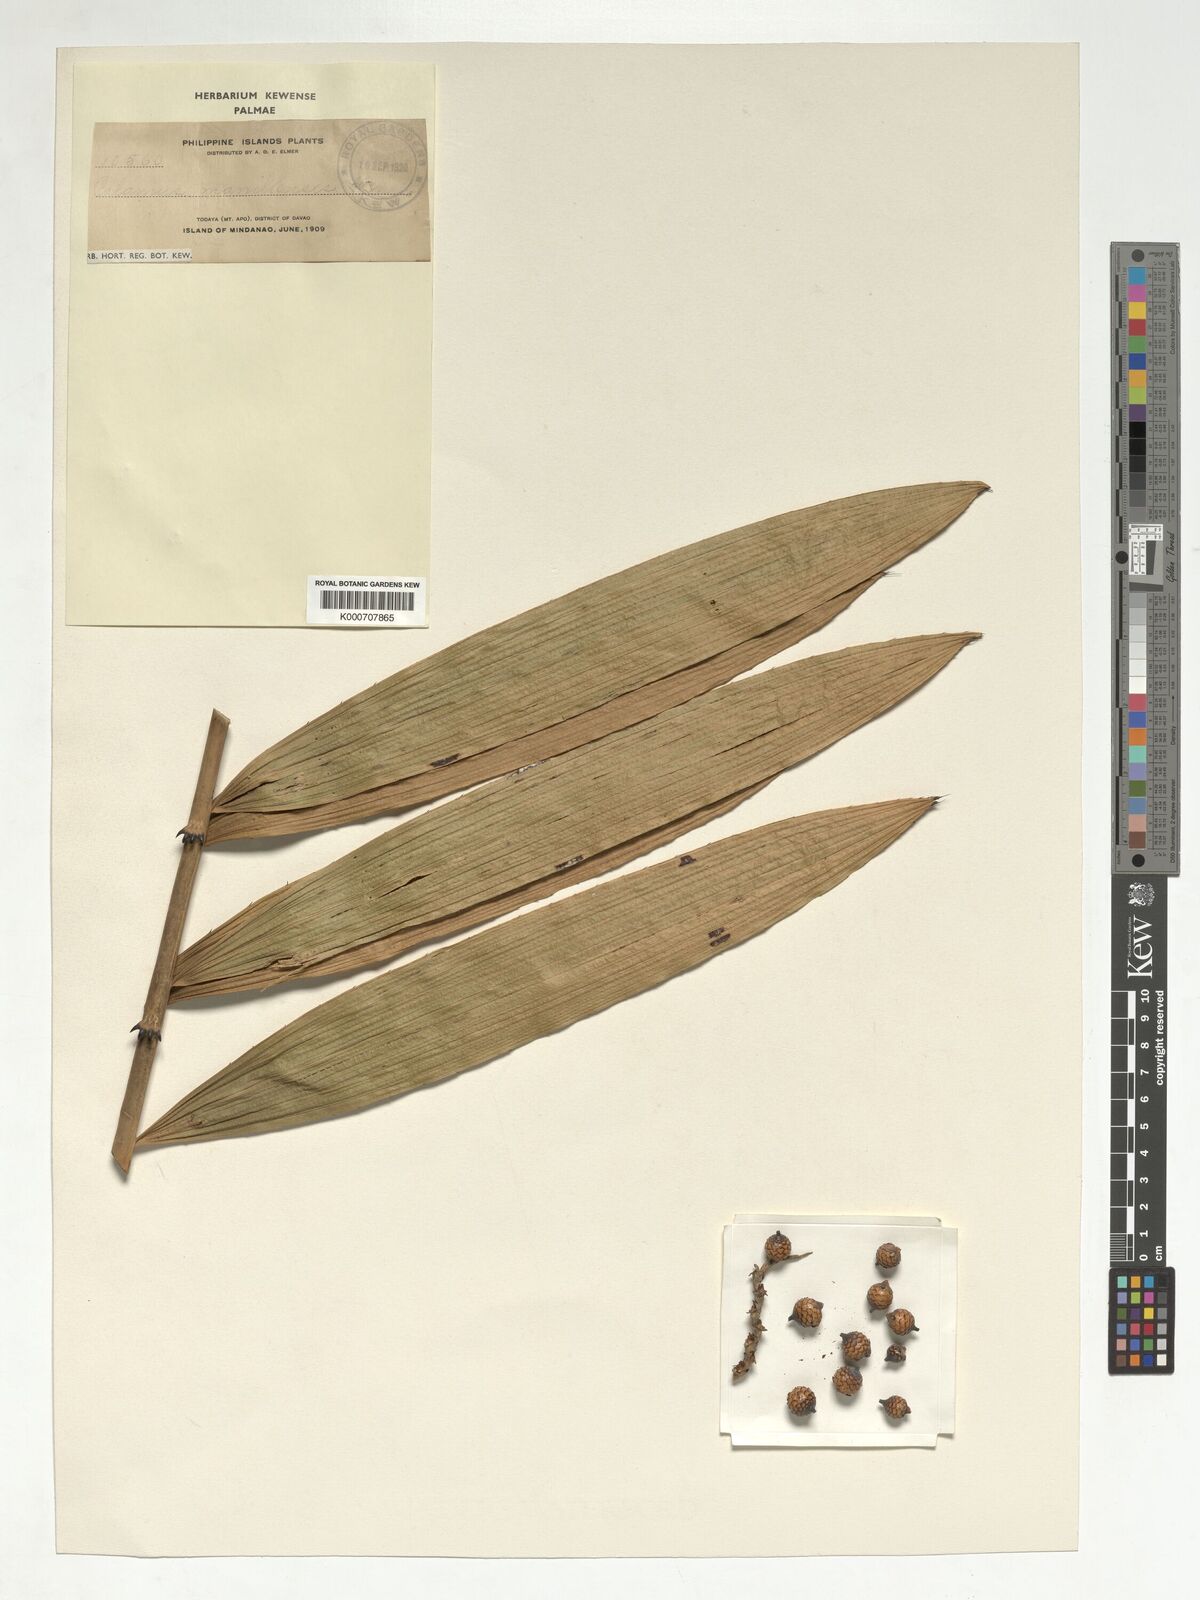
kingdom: Plantae
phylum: Tracheophyta
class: Liliopsida
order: Arecales
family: Arecaceae
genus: Calamus
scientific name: Calamus manillensis
